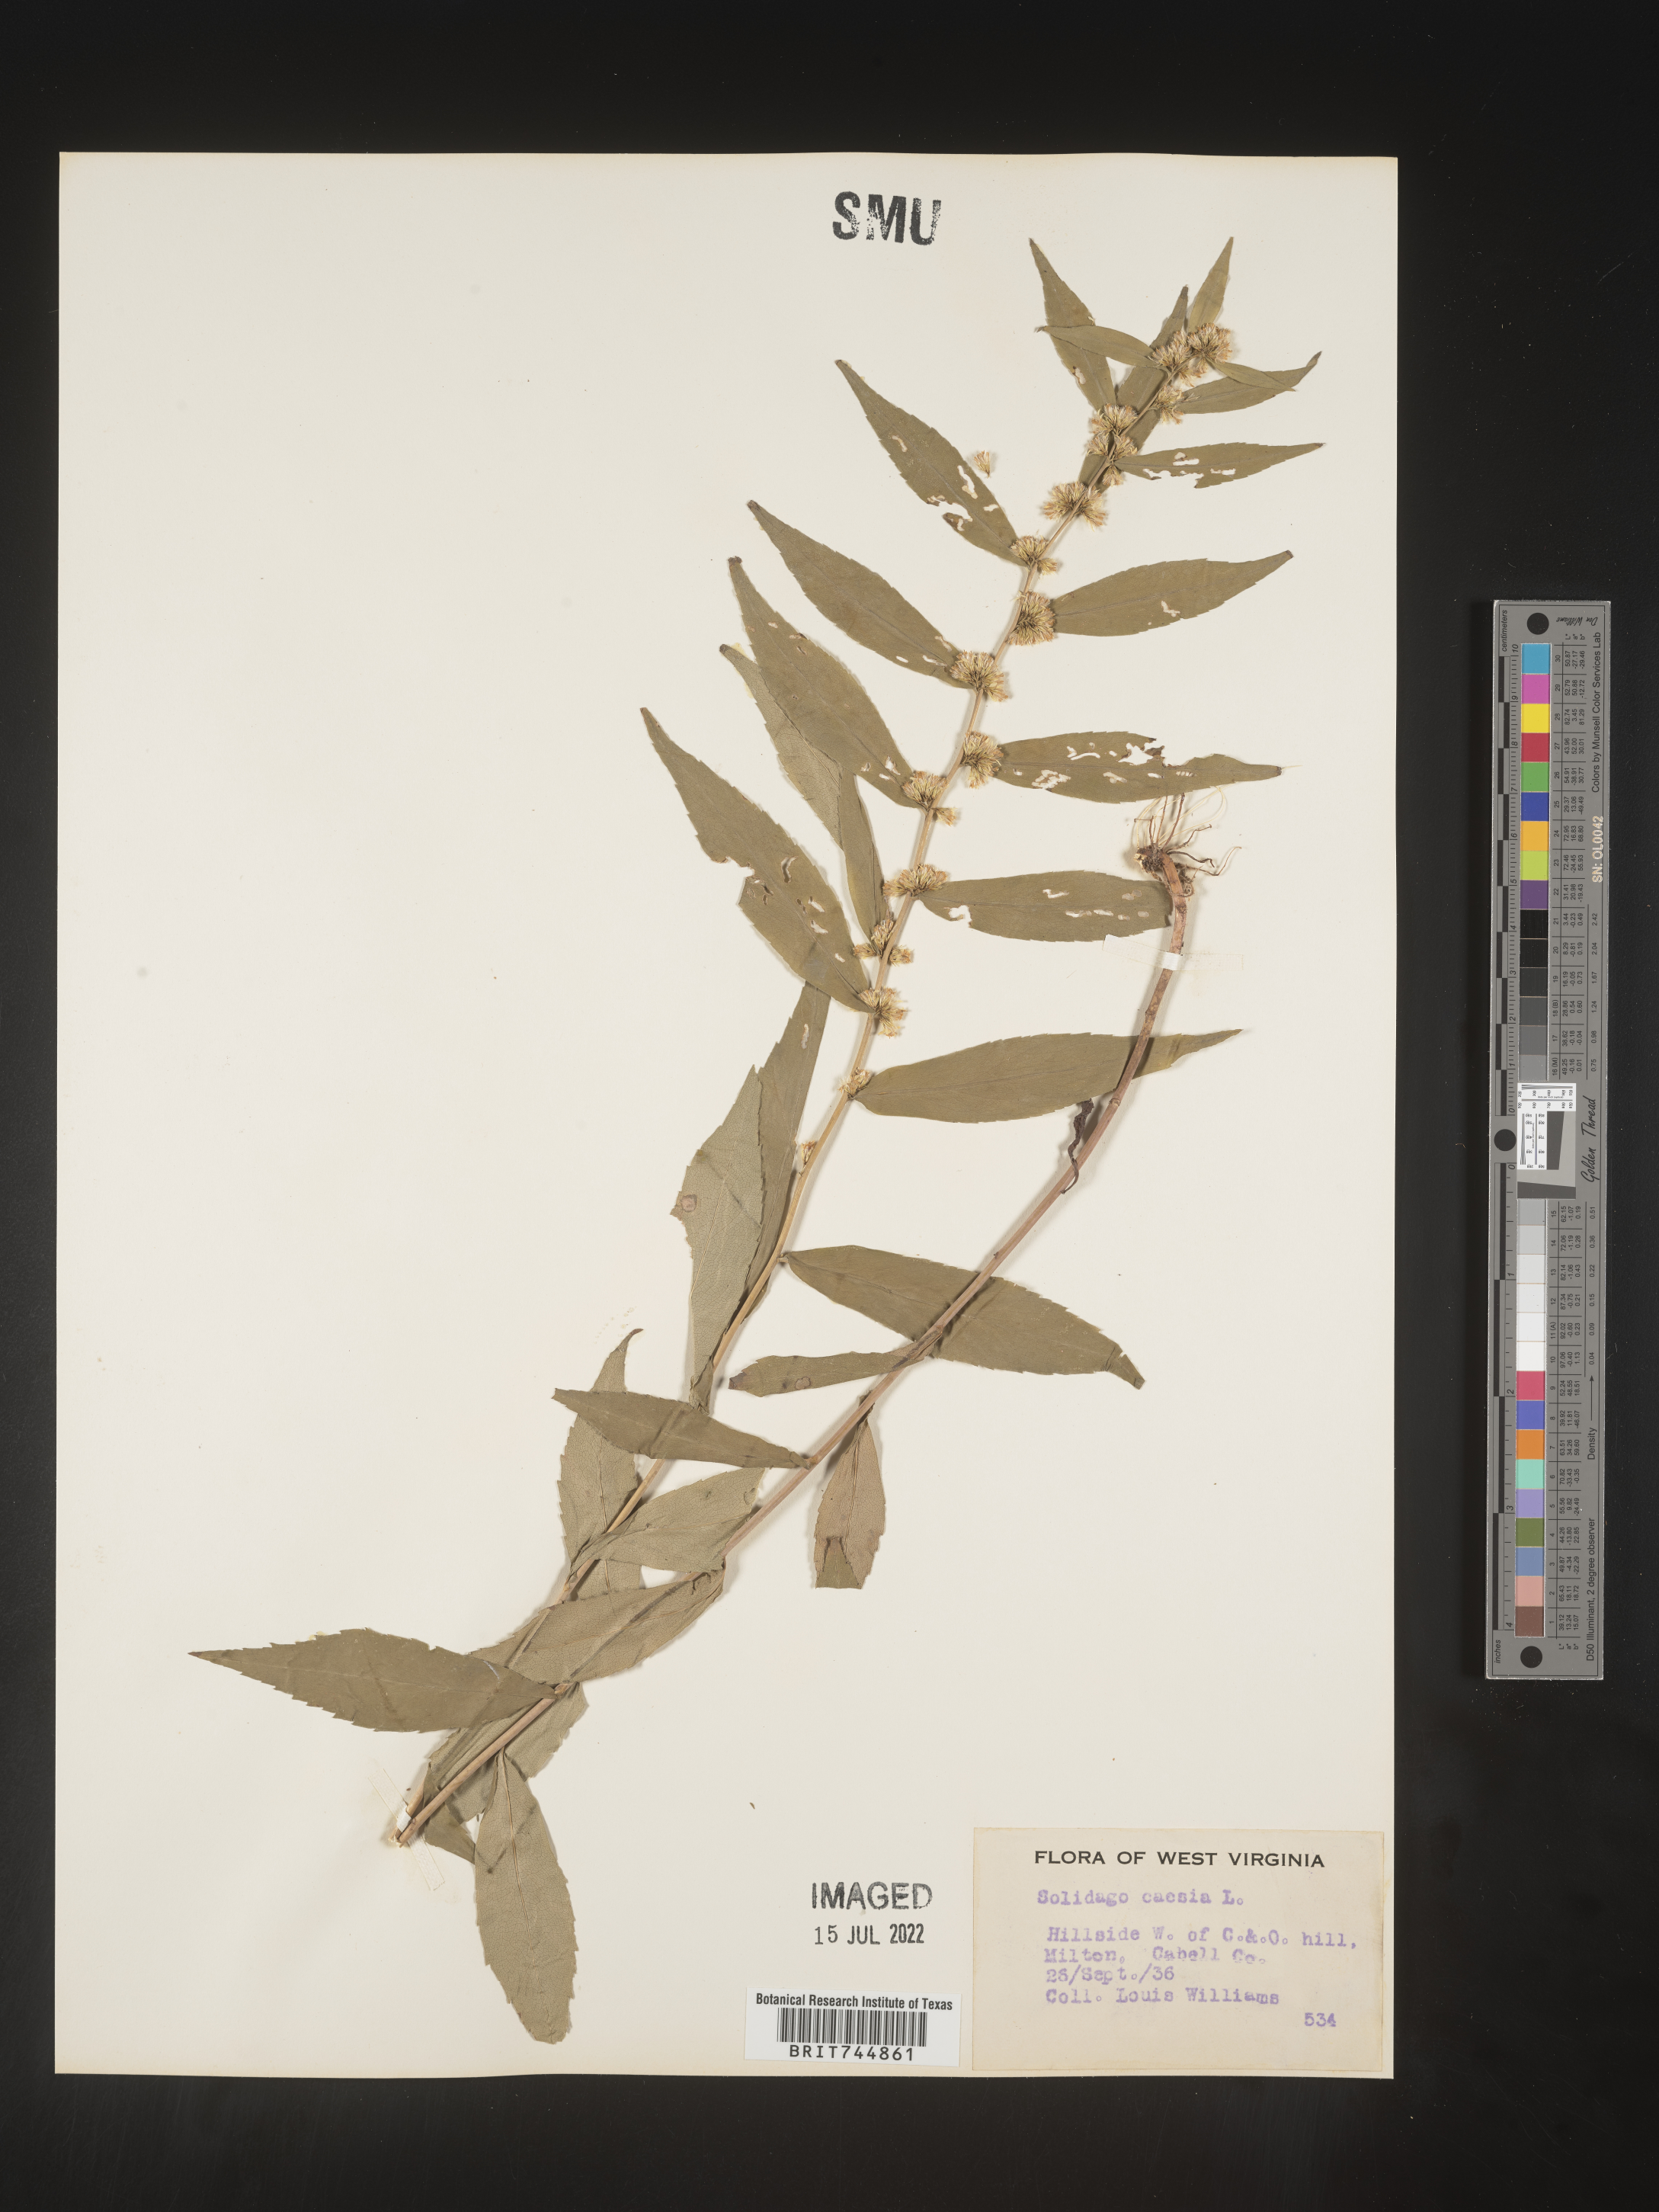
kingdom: Plantae
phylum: Tracheophyta
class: Magnoliopsida
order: Asterales
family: Asteraceae
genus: Solidago
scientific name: Solidago caesia
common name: Woodland goldenrod
